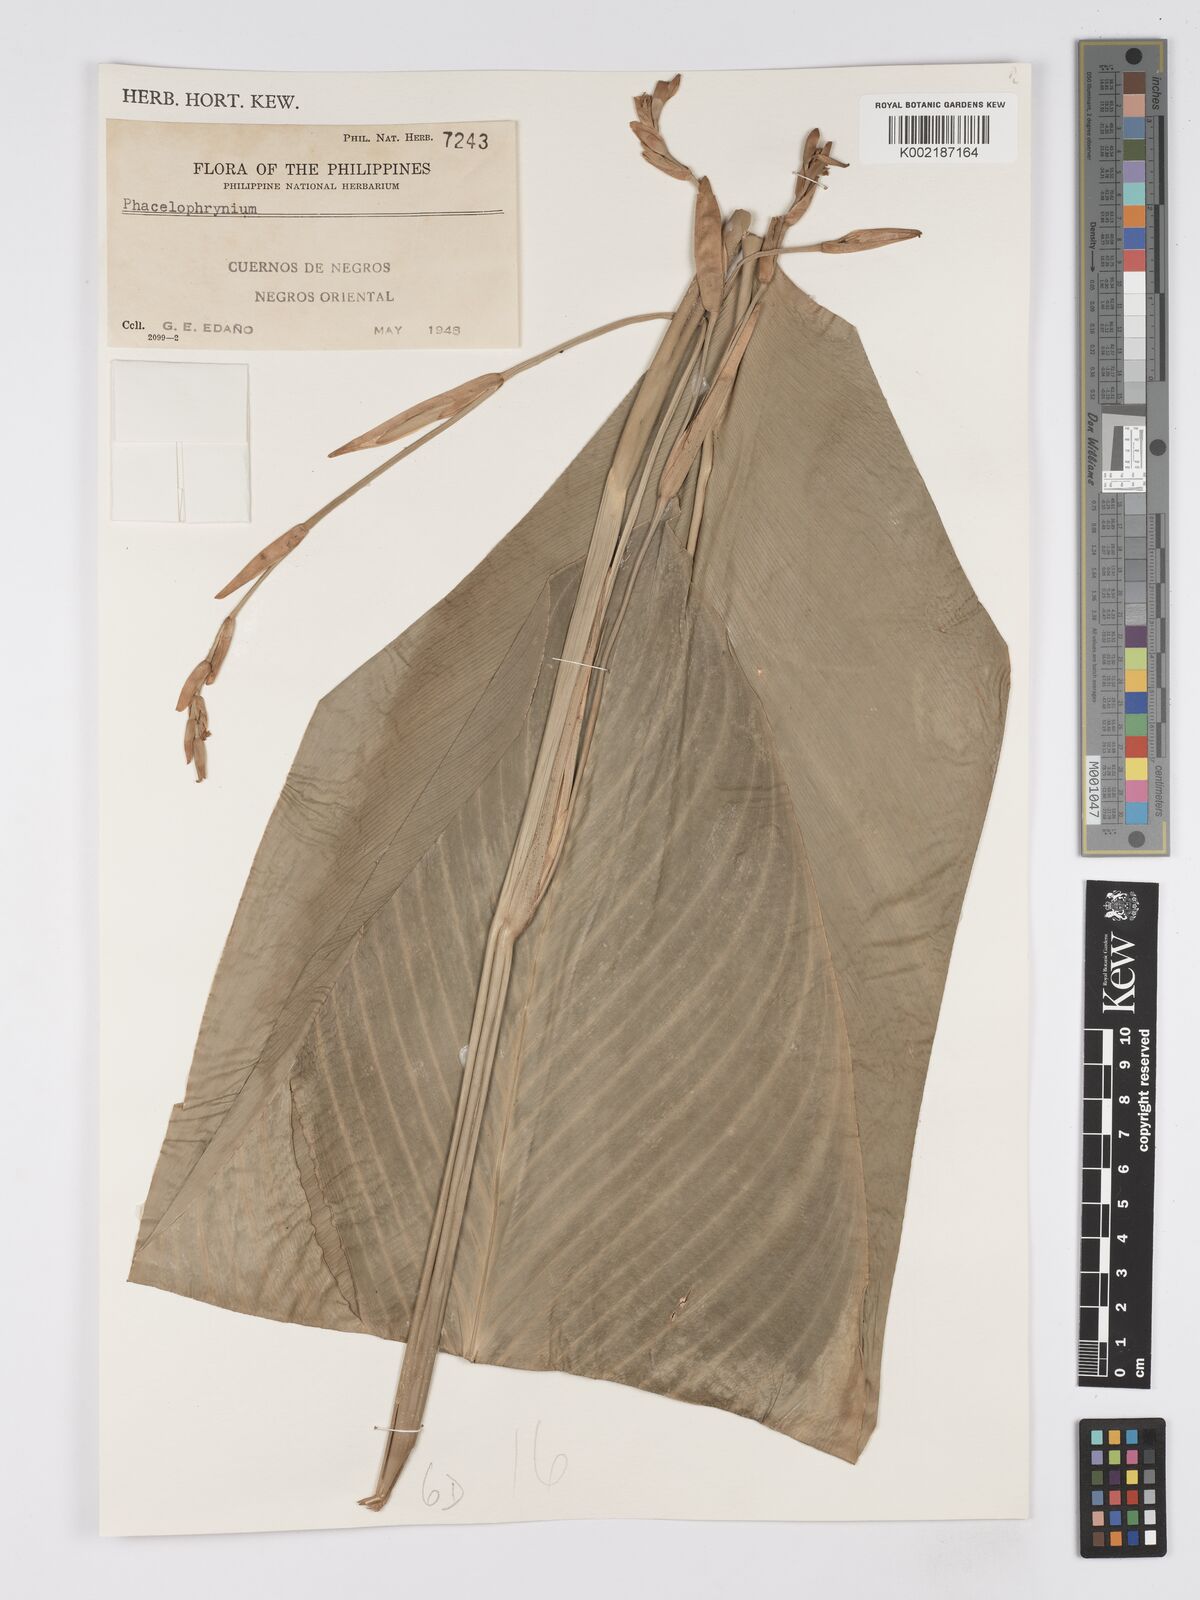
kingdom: Plantae
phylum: Tracheophyta
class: Liliopsida
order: Zingiberales
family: Marantaceae
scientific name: Marantaceae
